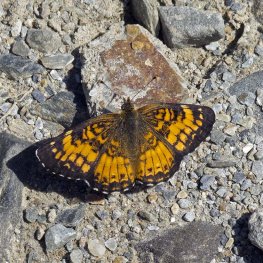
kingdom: Animalia
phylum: Arthropoda
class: Insecta
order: Lepidoptera
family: Nymphalidae
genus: Chlosyne
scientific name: Chlosyne harrisii
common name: Harris's Checkerspot
